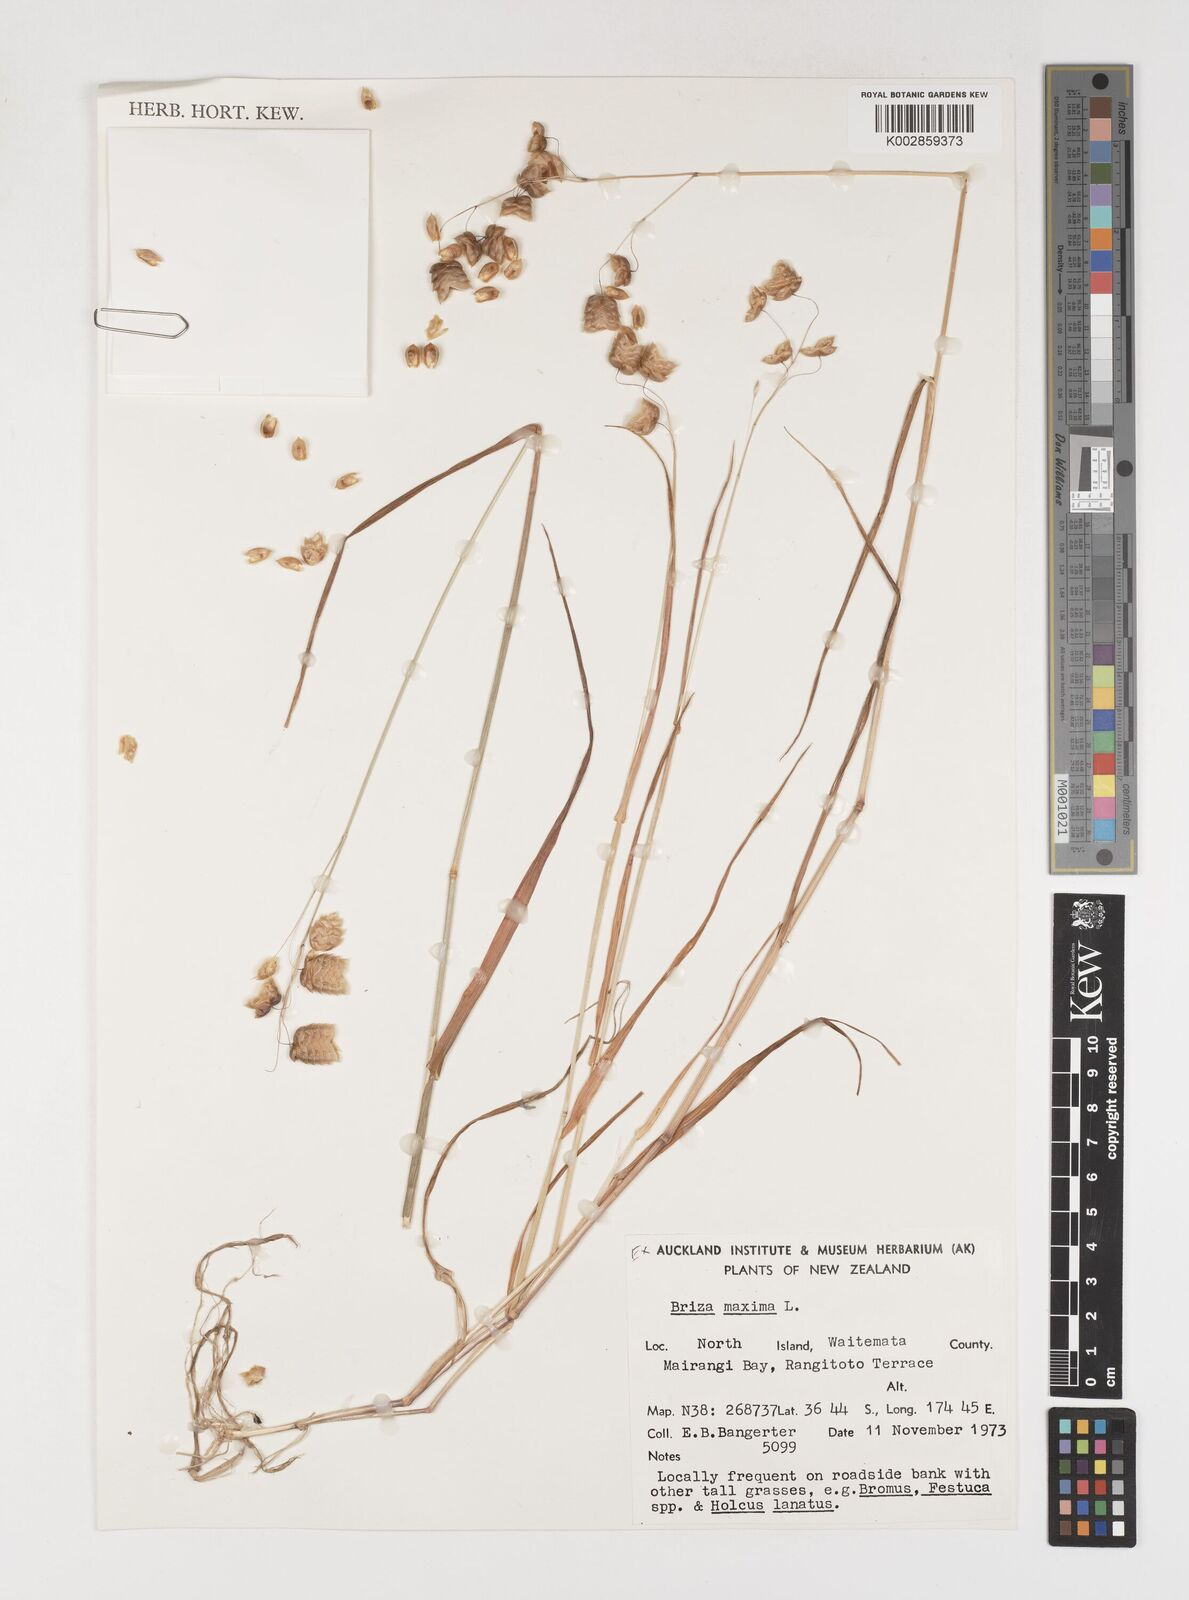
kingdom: Plantae
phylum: Tracheophyta
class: Liliopsida
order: Poales
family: Poaceae
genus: Briza
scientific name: Briza maxima
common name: Big quakinggrass
